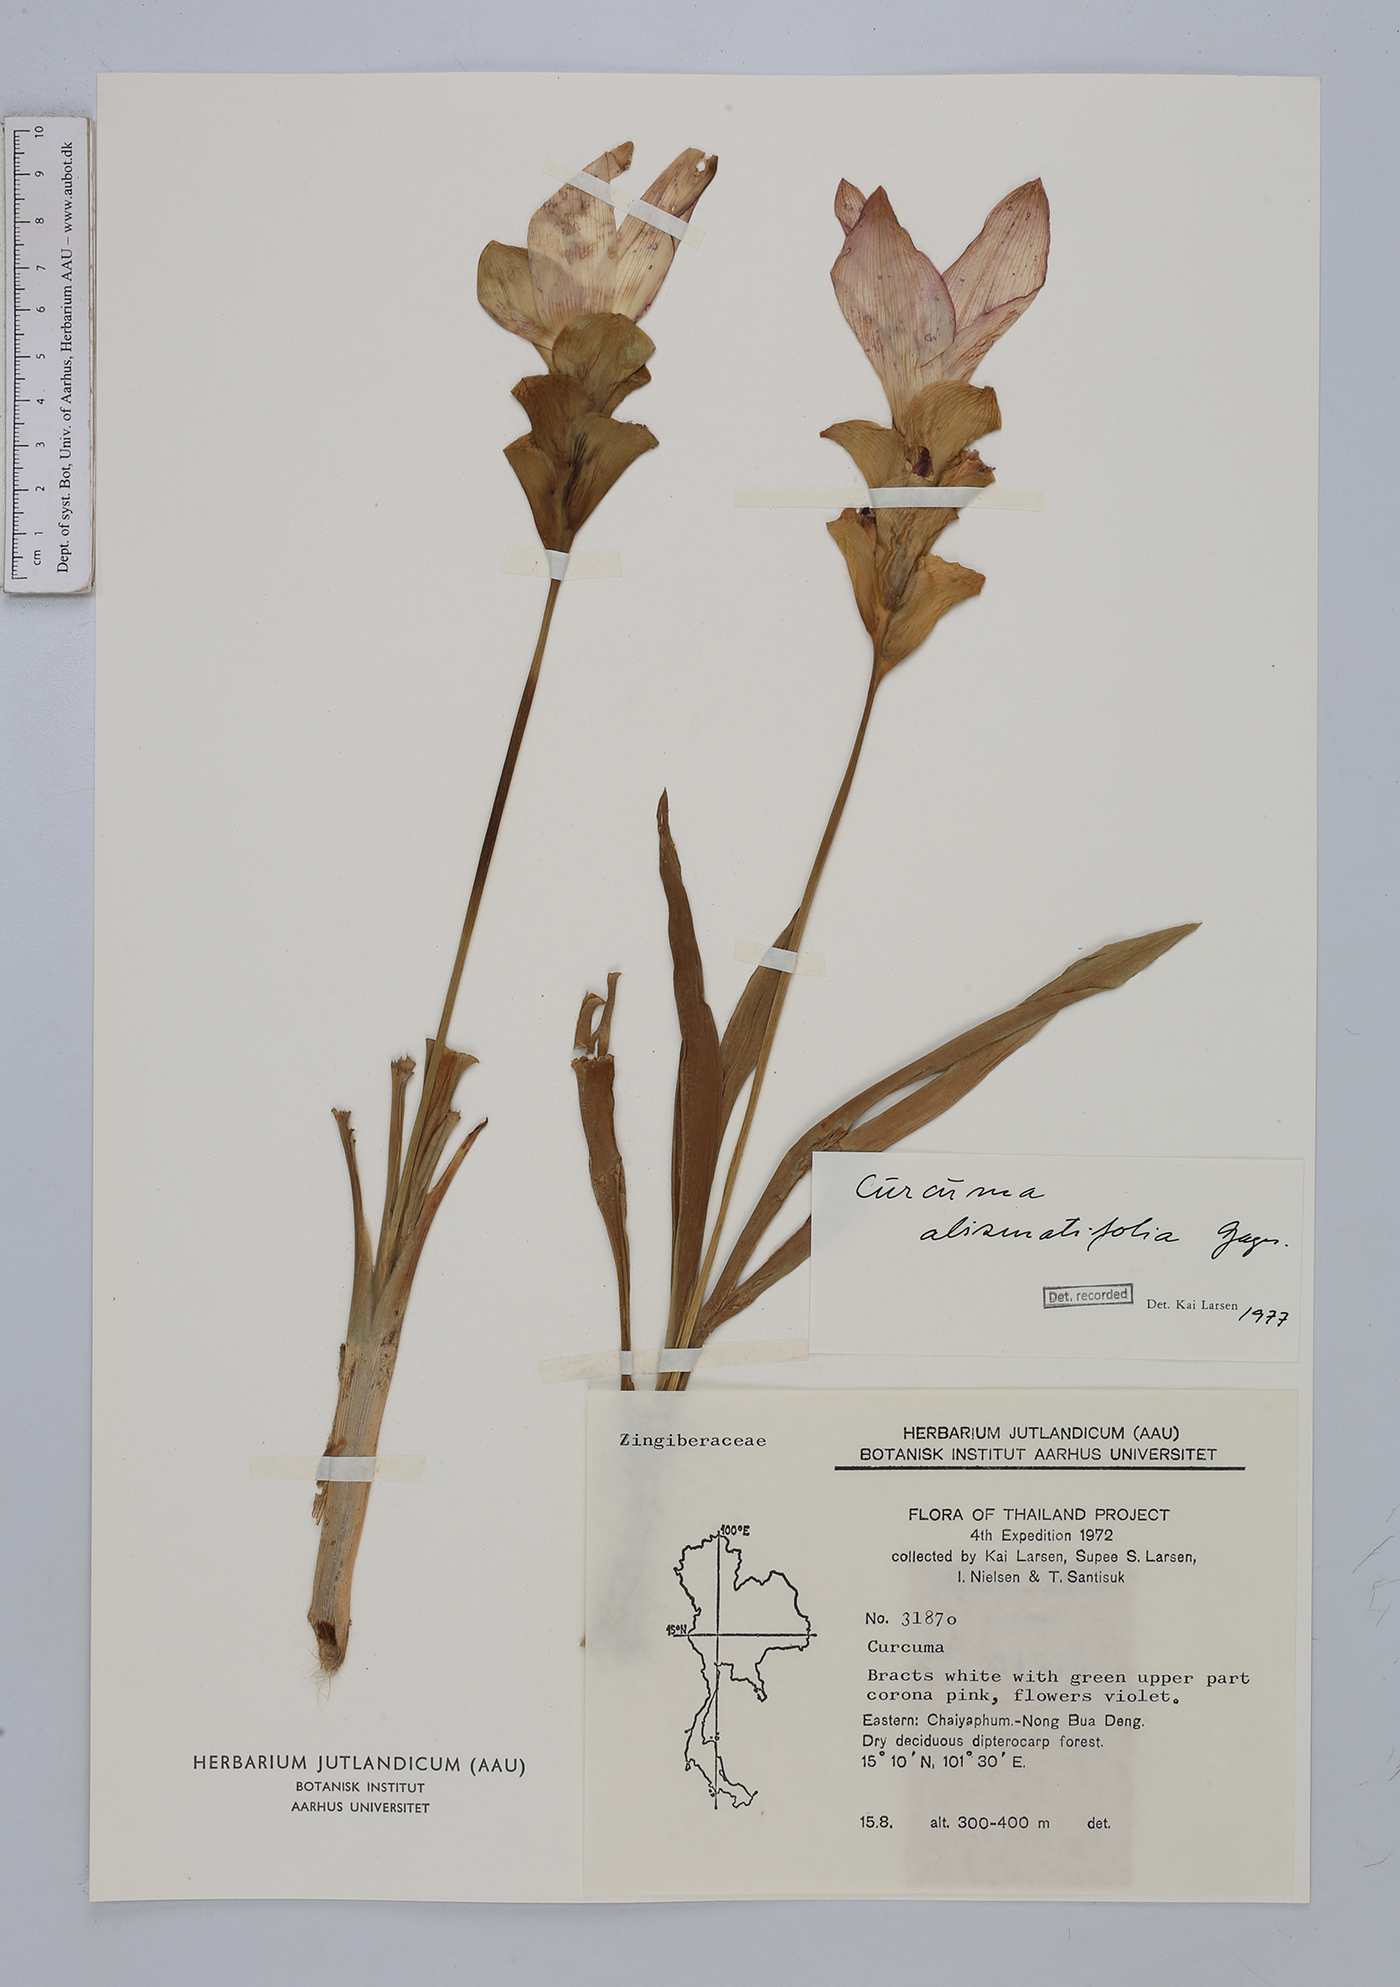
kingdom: Plantae
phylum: Tracheophyta
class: Liliopsida
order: Zingiberales
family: Zingiberaceae
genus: Curcuma
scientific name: Curcuma alismatifolia
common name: Siam tulip
